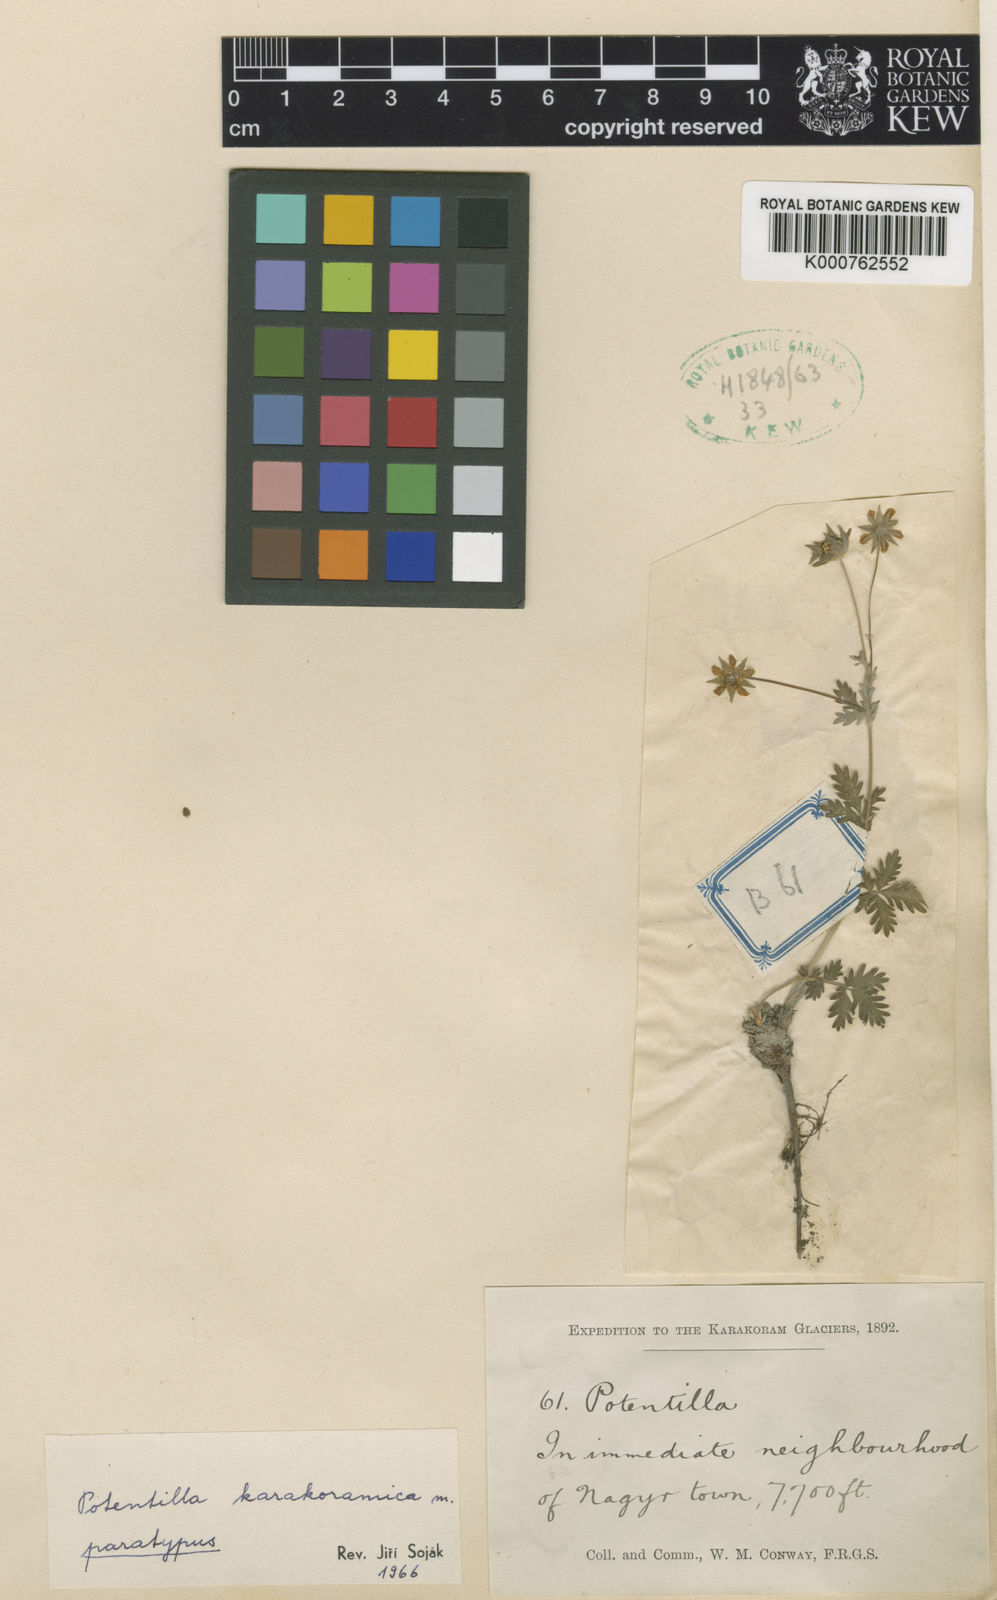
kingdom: Plantae
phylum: Tracheophyta
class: Magnoliopsida
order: Rosales
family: Rosaceae
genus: Potentilla
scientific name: Potentilla
